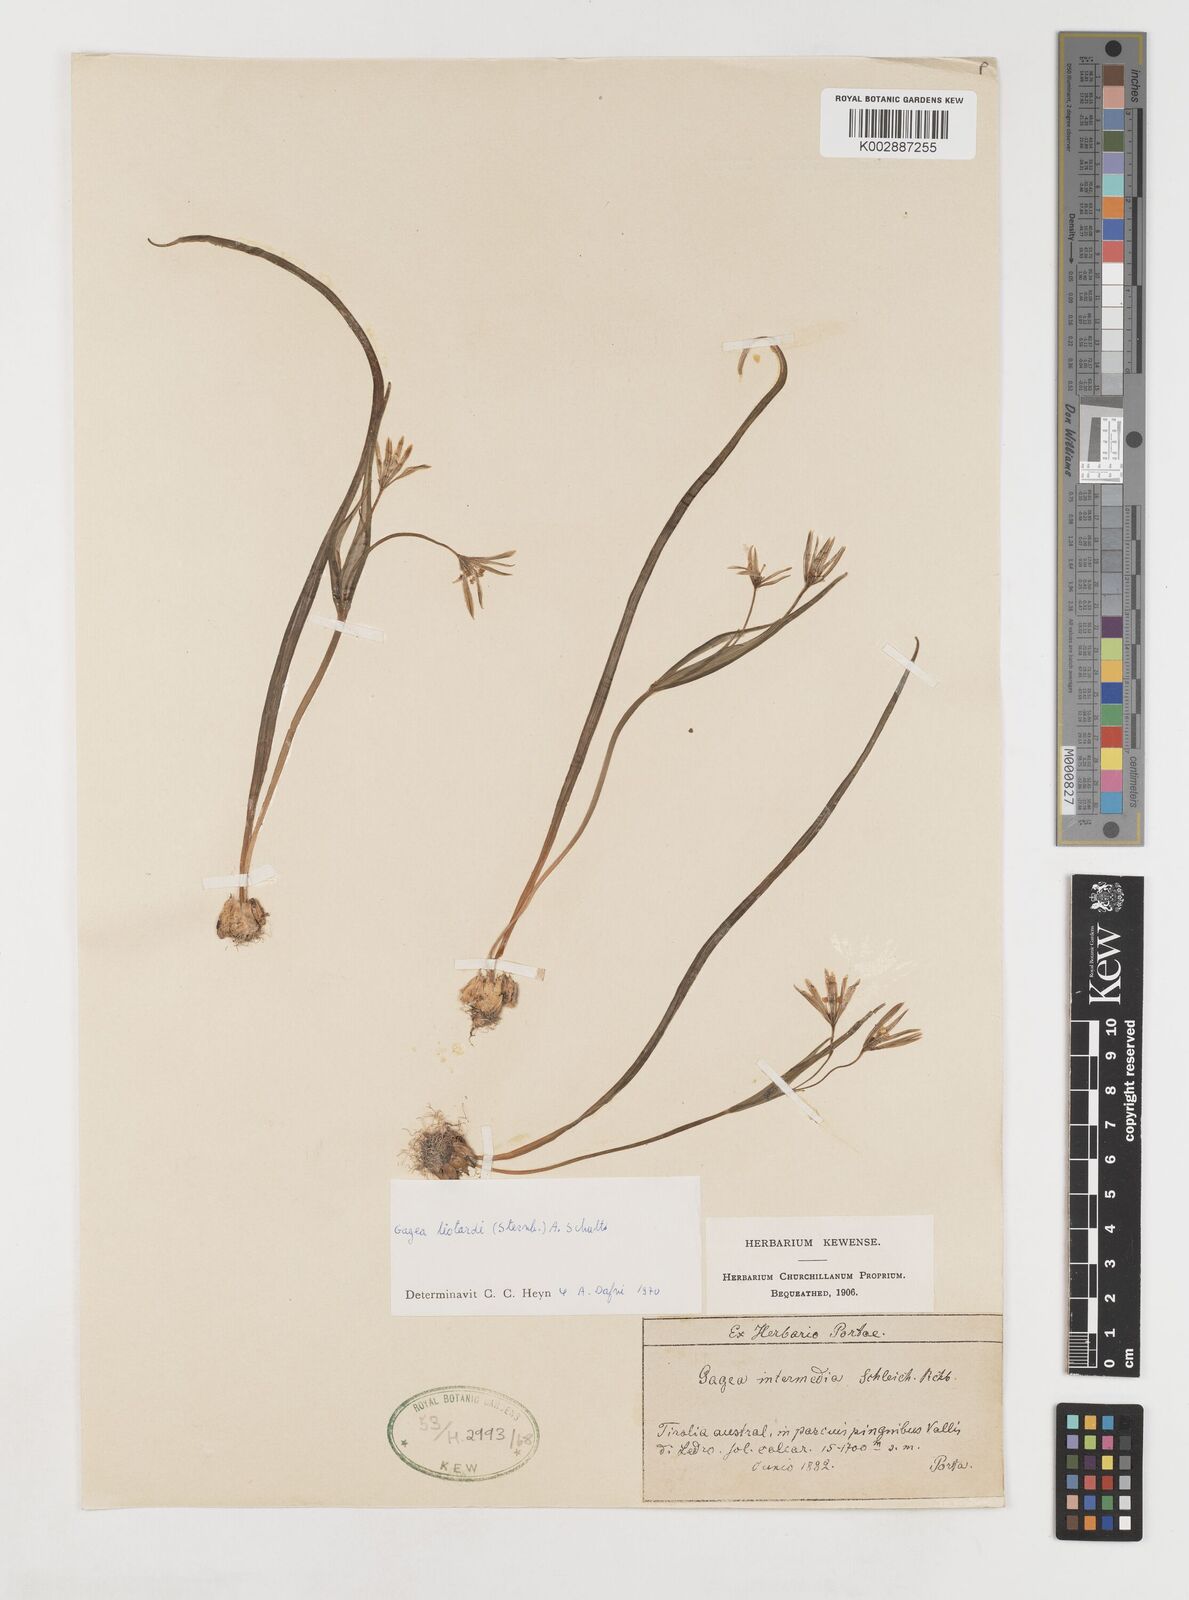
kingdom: Plantae
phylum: Tracheophyta
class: Liliopsida
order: Liliales
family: Liliaceae
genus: Gagea
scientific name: Gagea fragifera
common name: Lily
